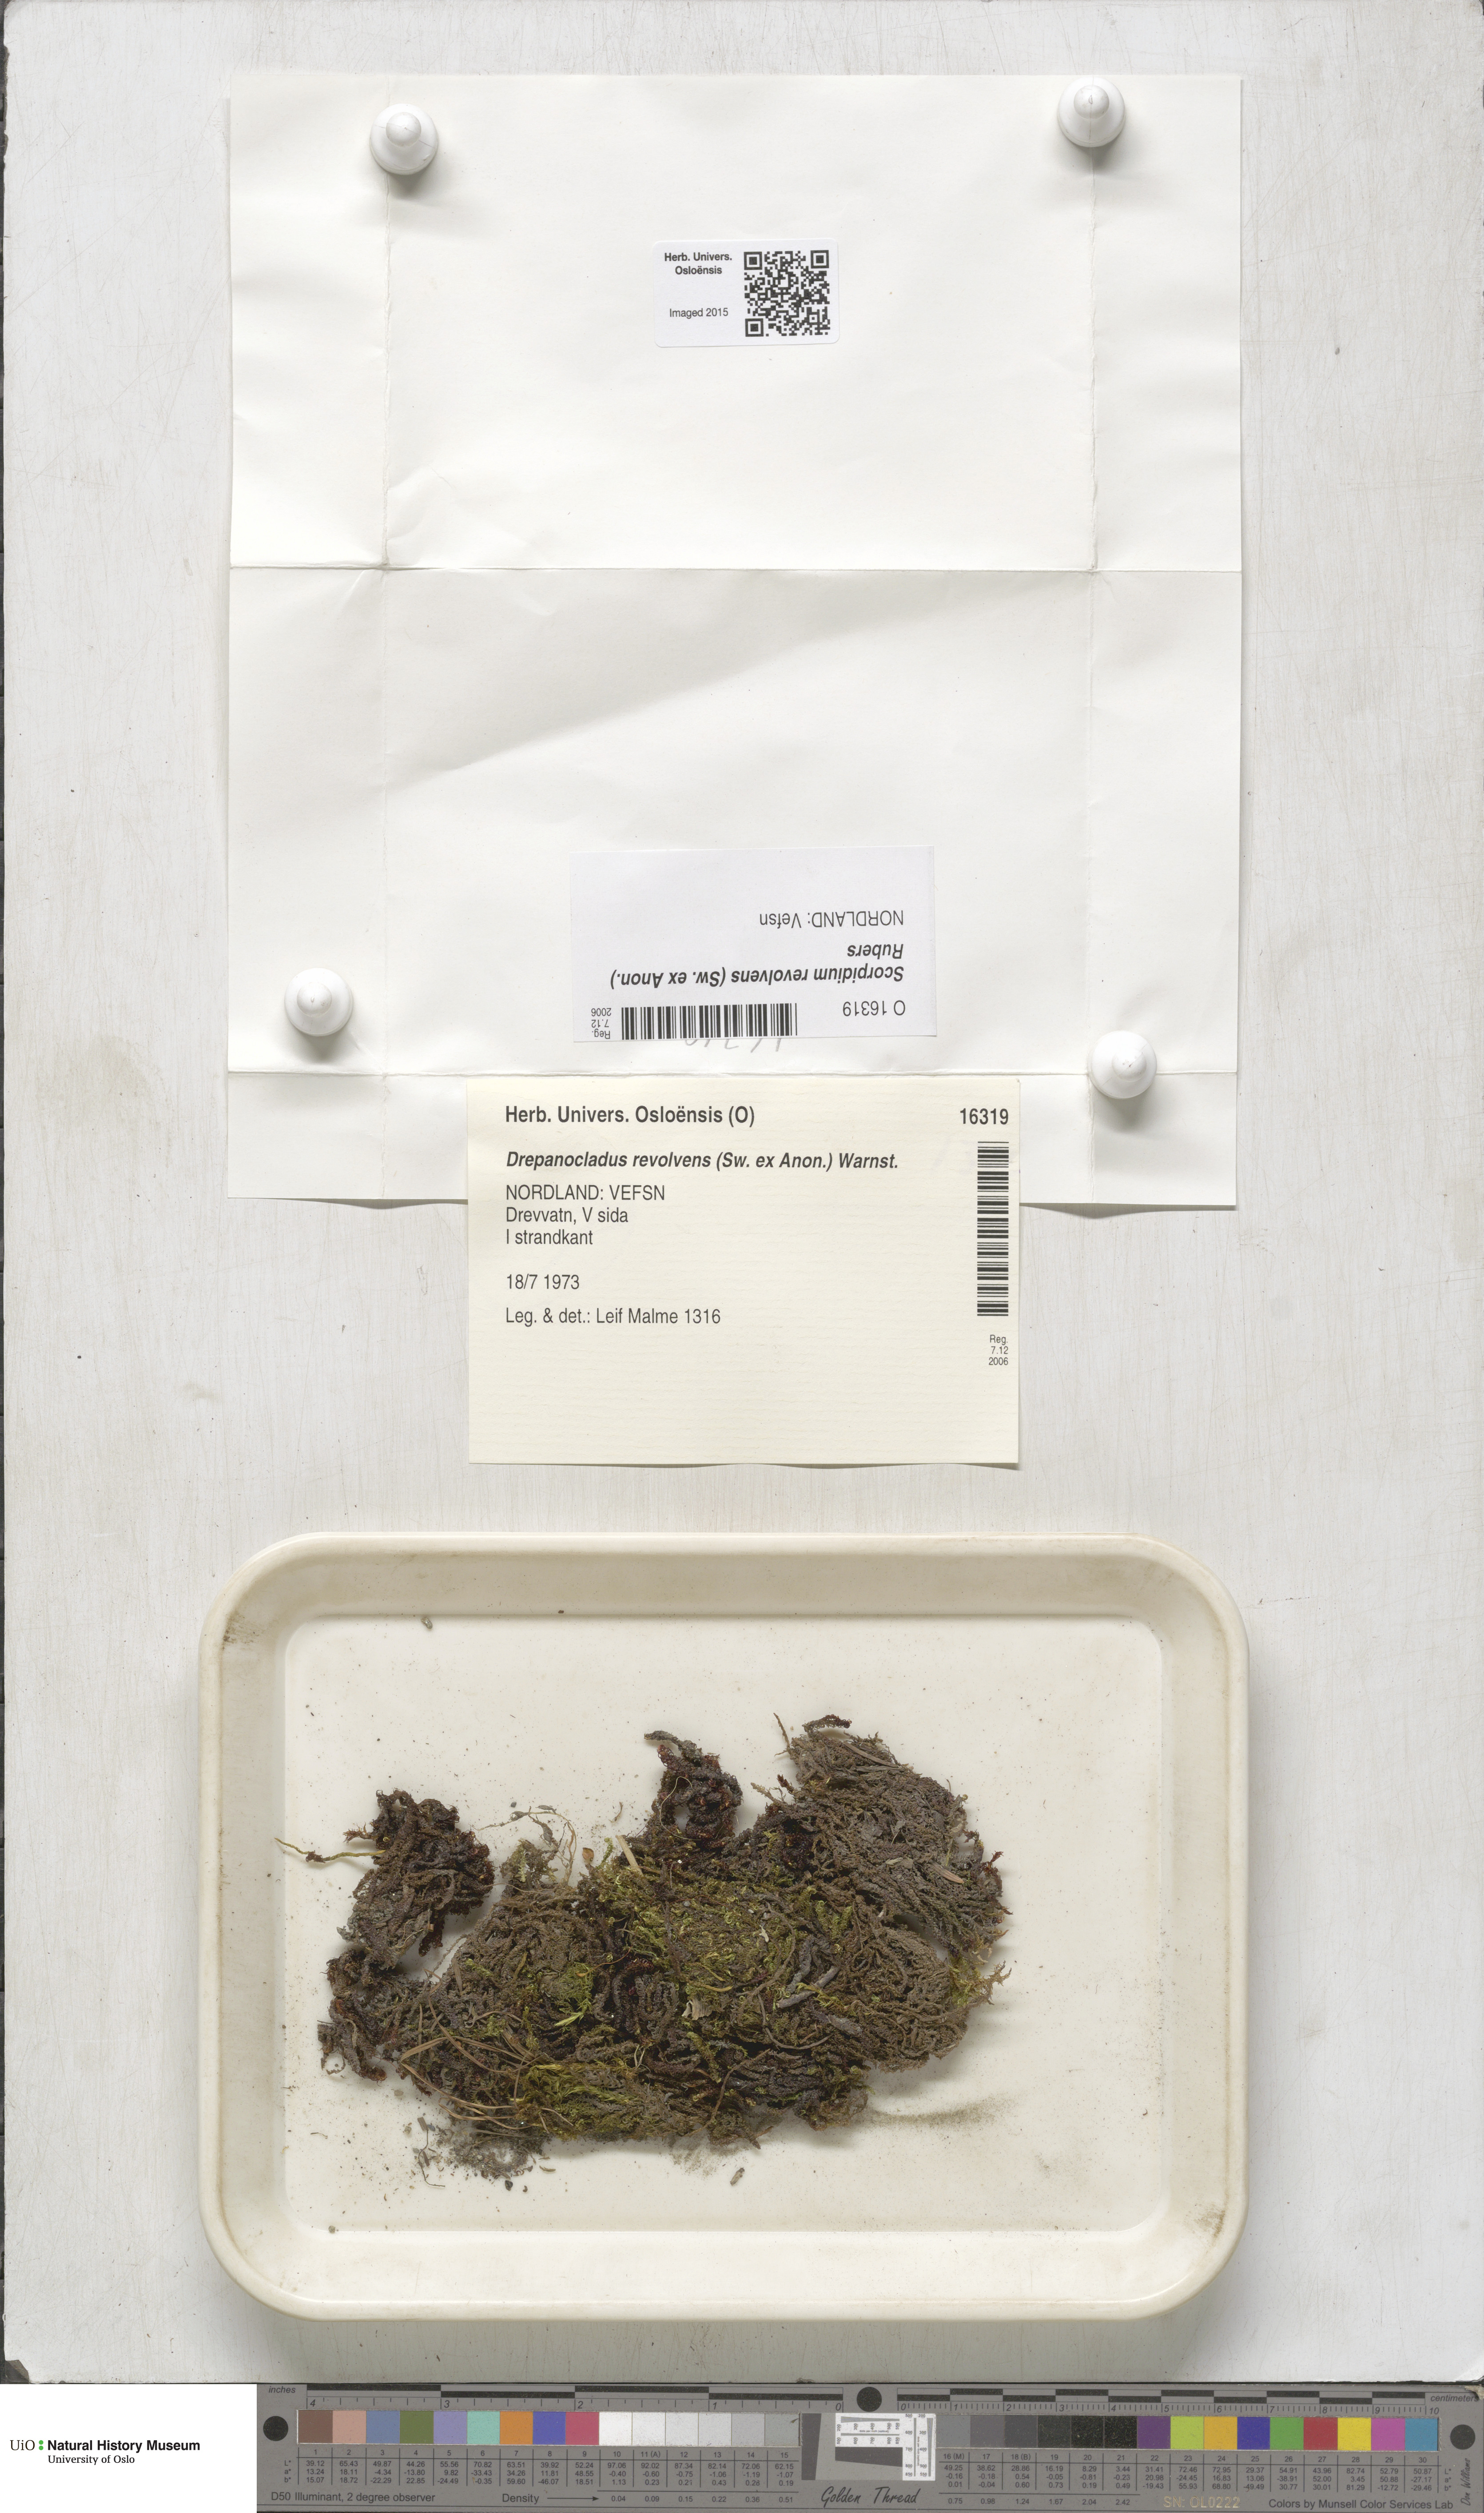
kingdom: Plantae
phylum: Bryophyta
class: Bryopsida
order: Hypnales
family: Scorpidiaceae
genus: Scorpidium
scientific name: Scorpidium revolvens
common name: Rusty hook moss
